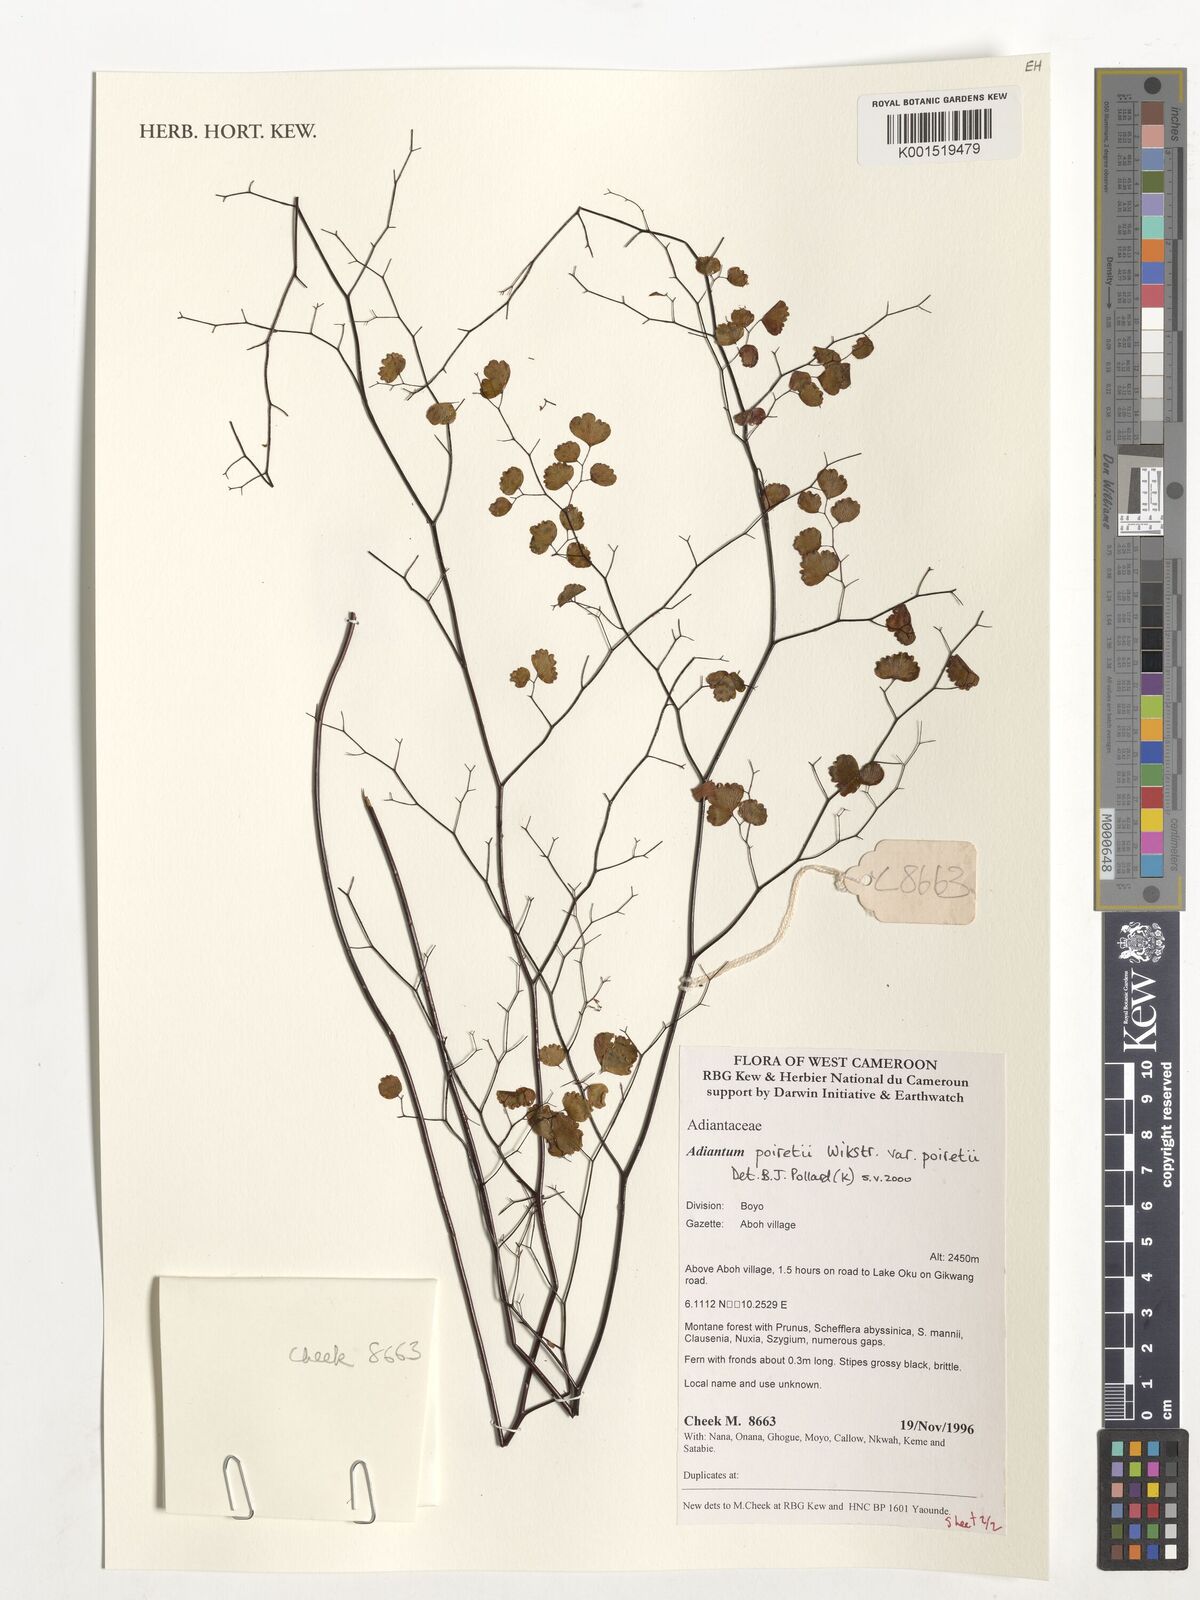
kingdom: Plantae
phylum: Tracheophyta
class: Polypodiopsida
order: Polypodiales
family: Pteridaceae
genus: Adiantum
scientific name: Adiantum poiretii
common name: Mexican maidenhair
